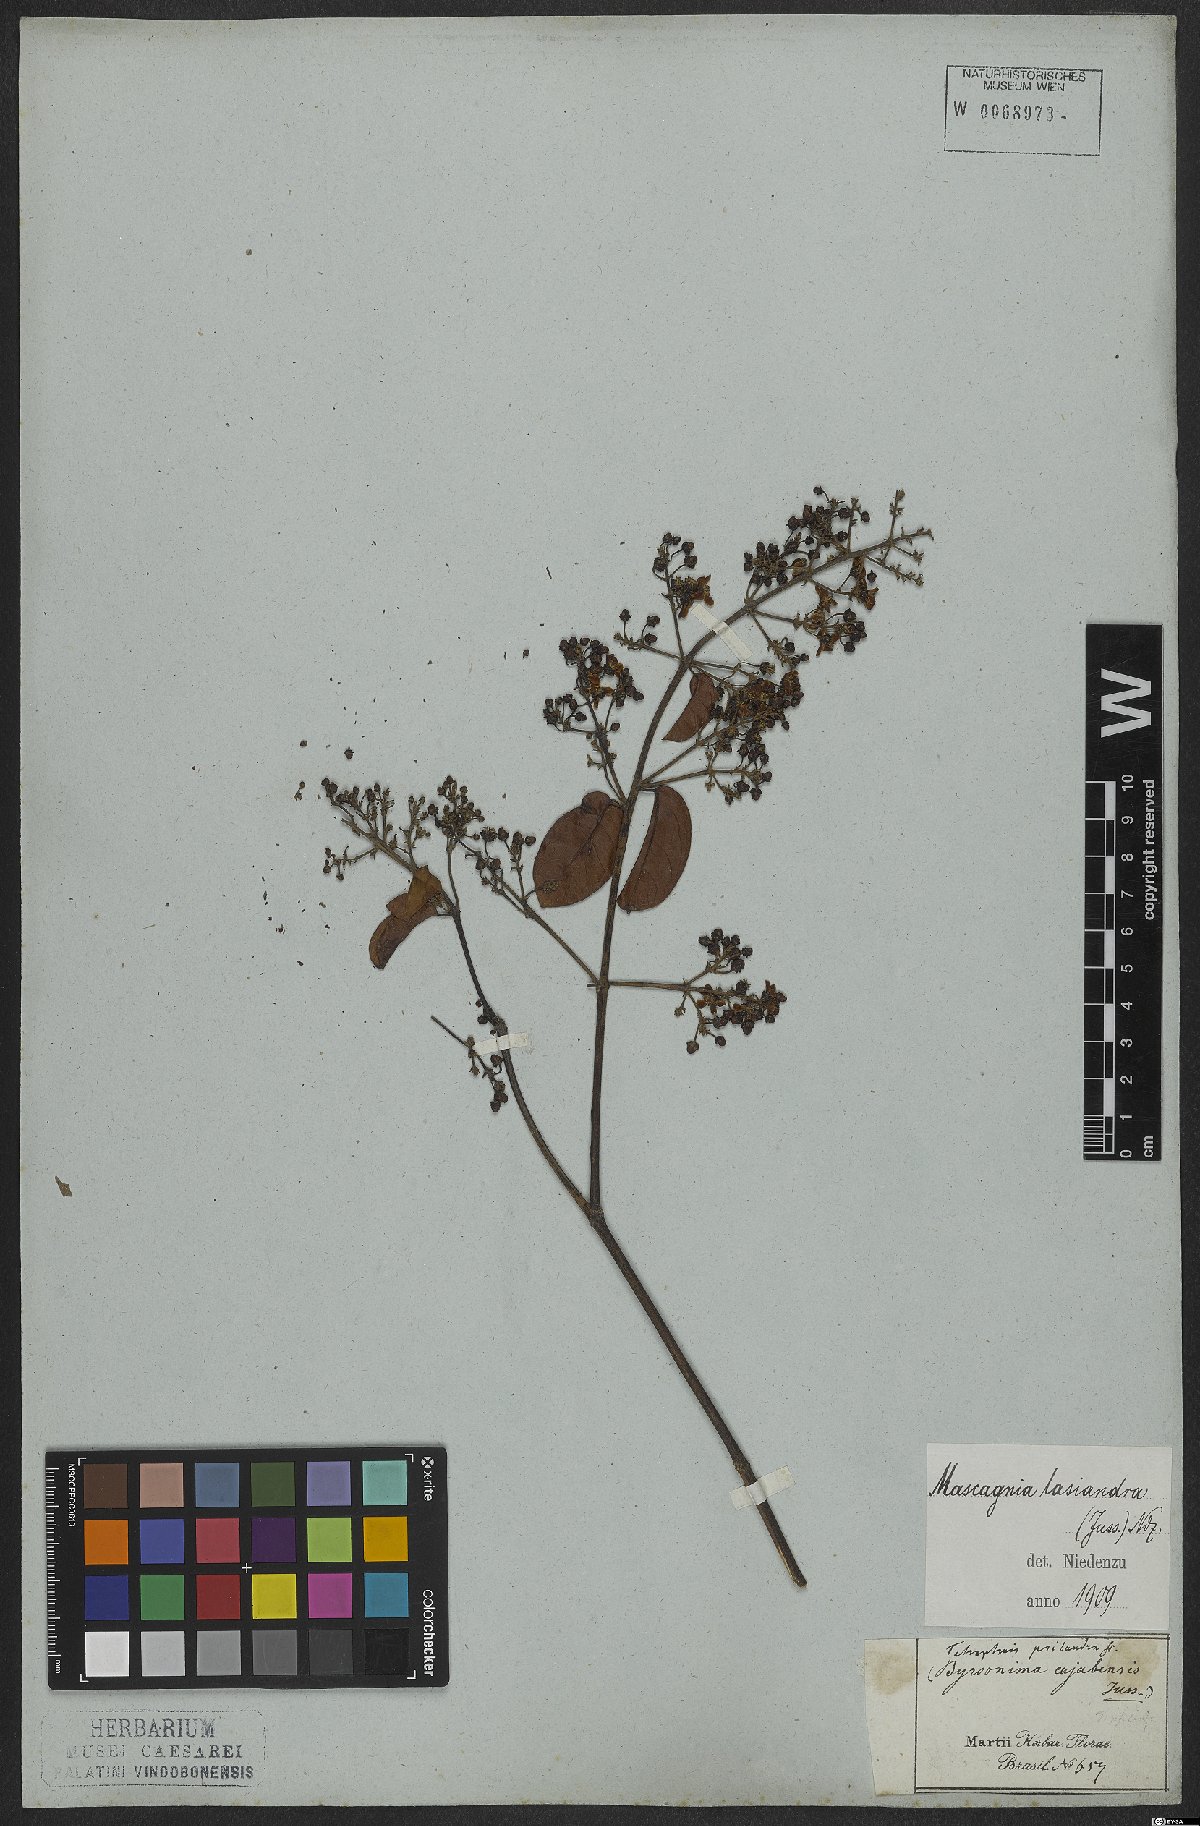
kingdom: Plantae
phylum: Tracheophyta
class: Magnoliopsida
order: Malpighiales
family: Malpighiaceae
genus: Niedenzuella
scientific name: Niedenzuella lasiandra
